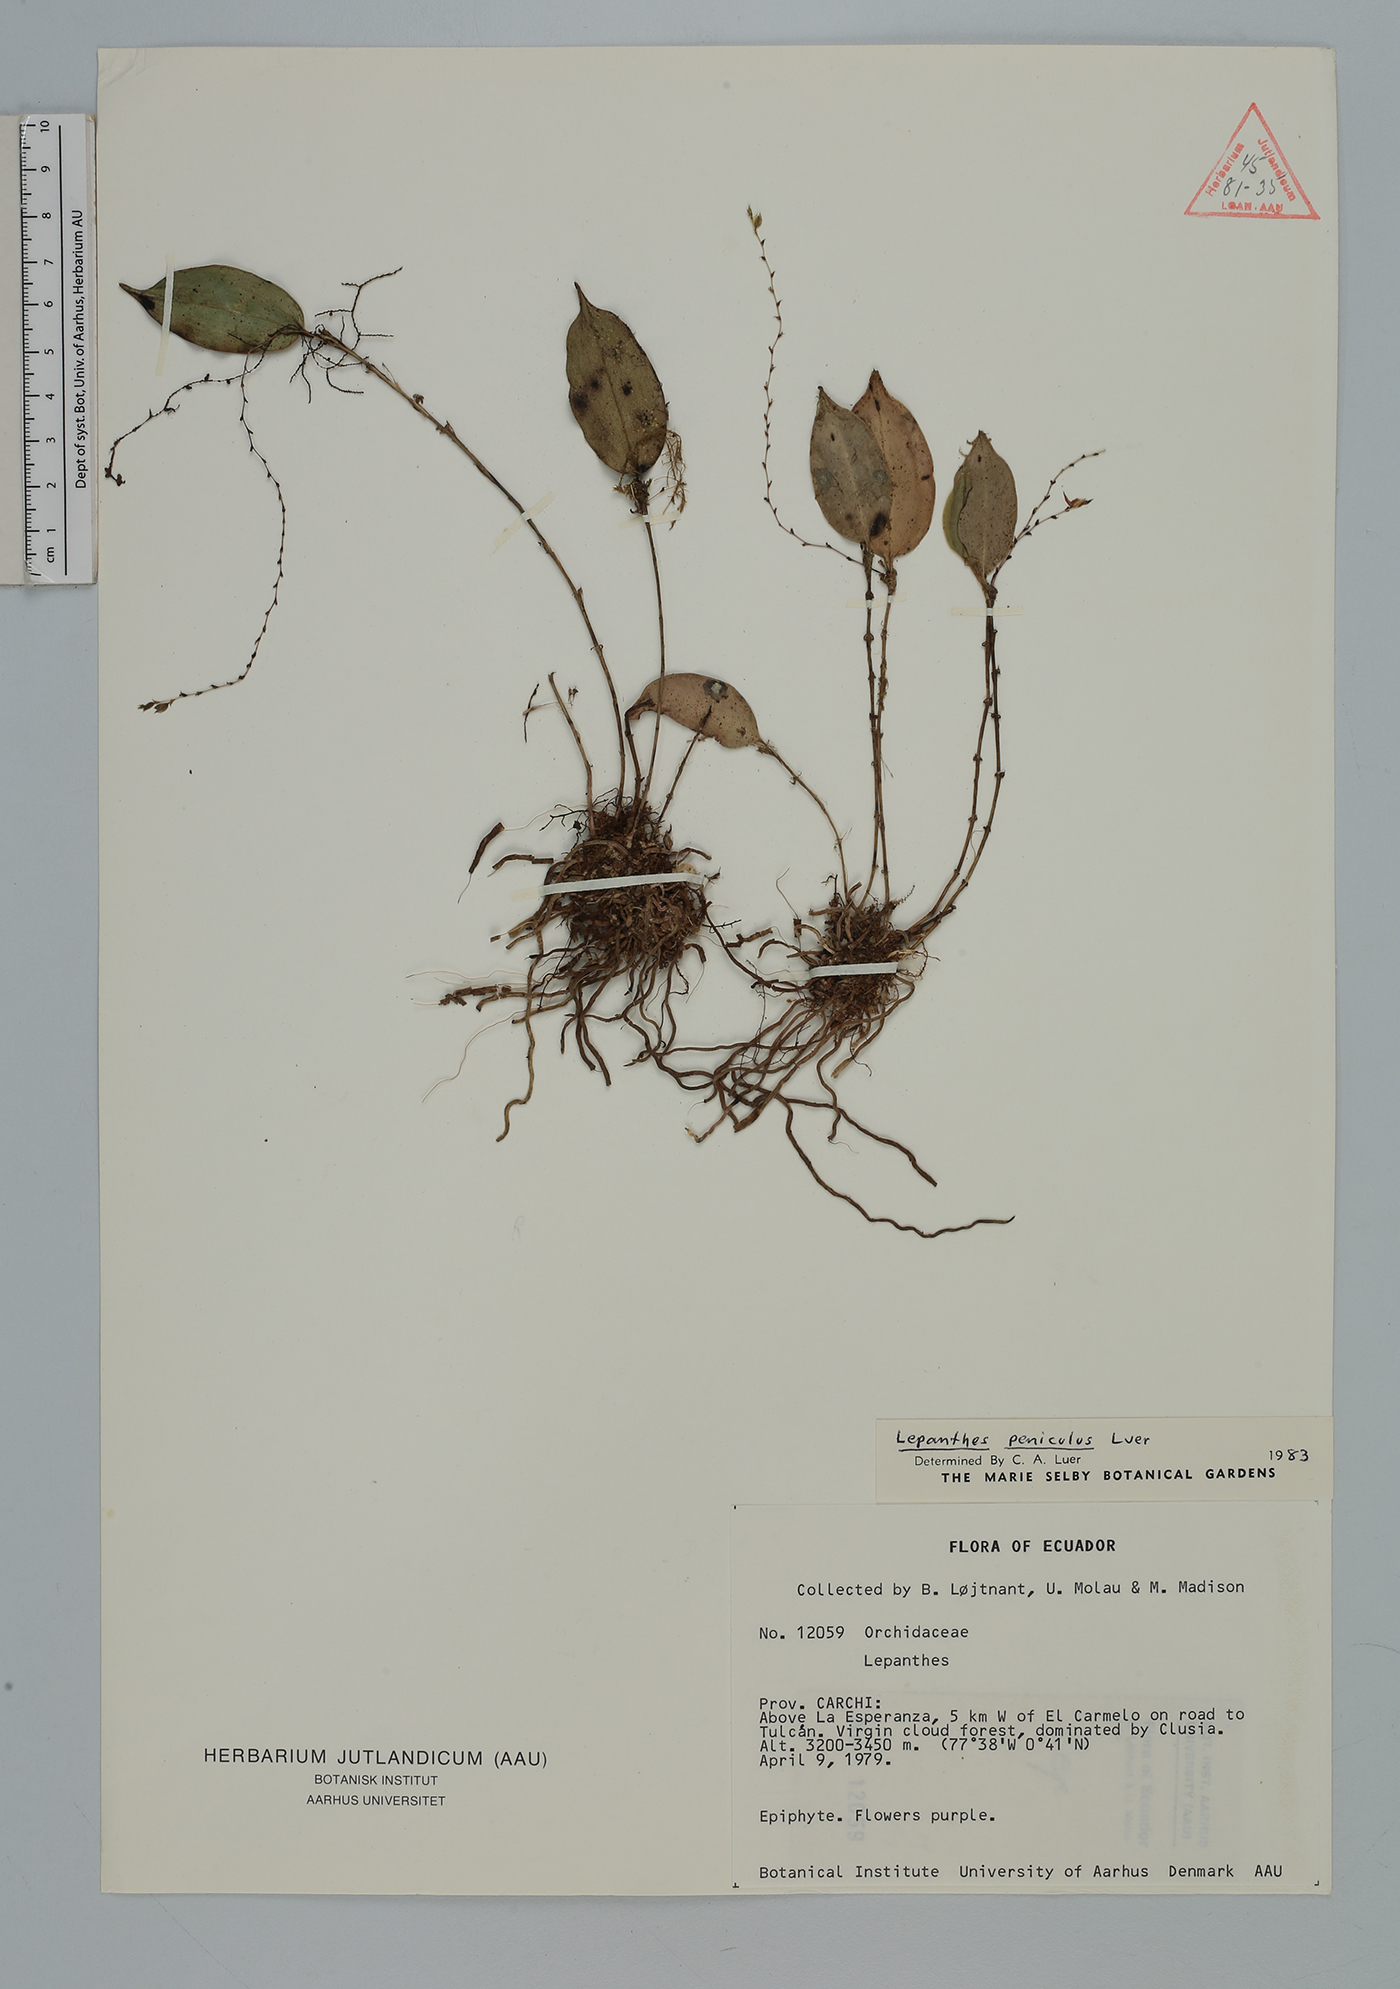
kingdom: Plantae
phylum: Tracheophyta
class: Liliopsida
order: Asparagales
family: Orchidaceae
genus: Lepanthes
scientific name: Lepanthes
